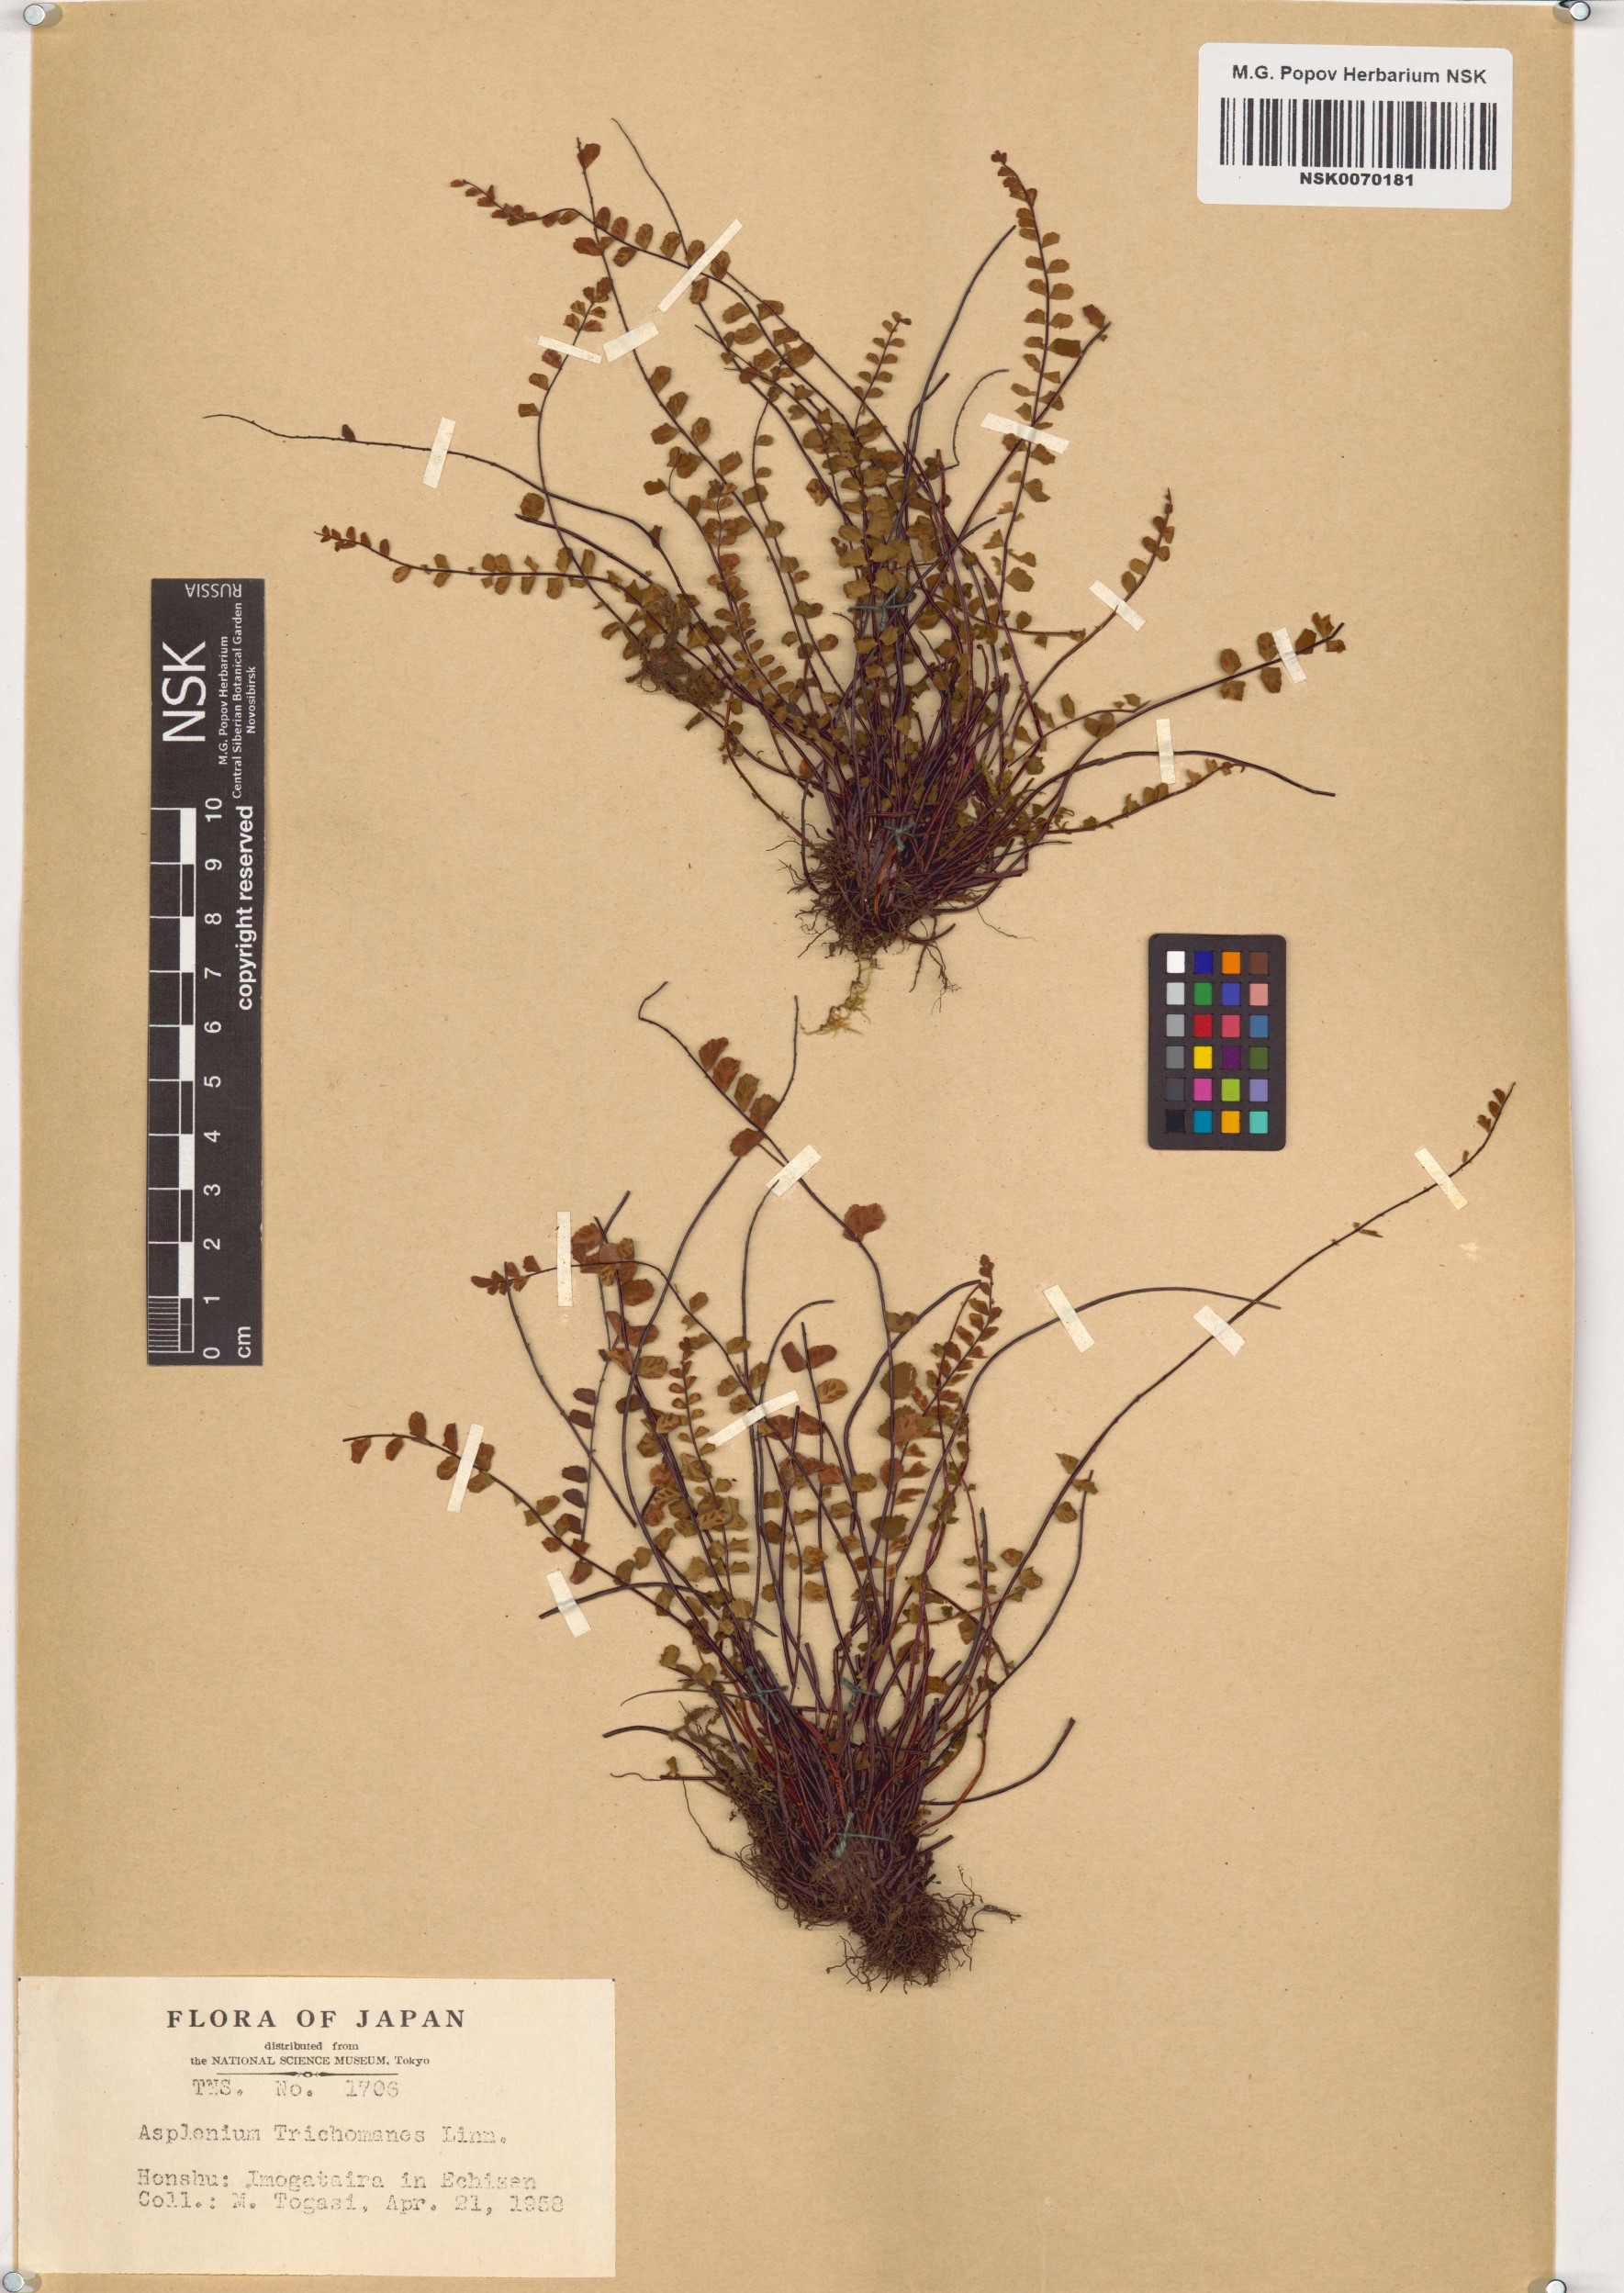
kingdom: Plantae
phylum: Tracheophyta
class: Polypodiopsida
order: Polypodiales
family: Aspleniaceae
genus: Asplenium
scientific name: Asplenium trichomanes
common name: Maidenhair spleenwort
